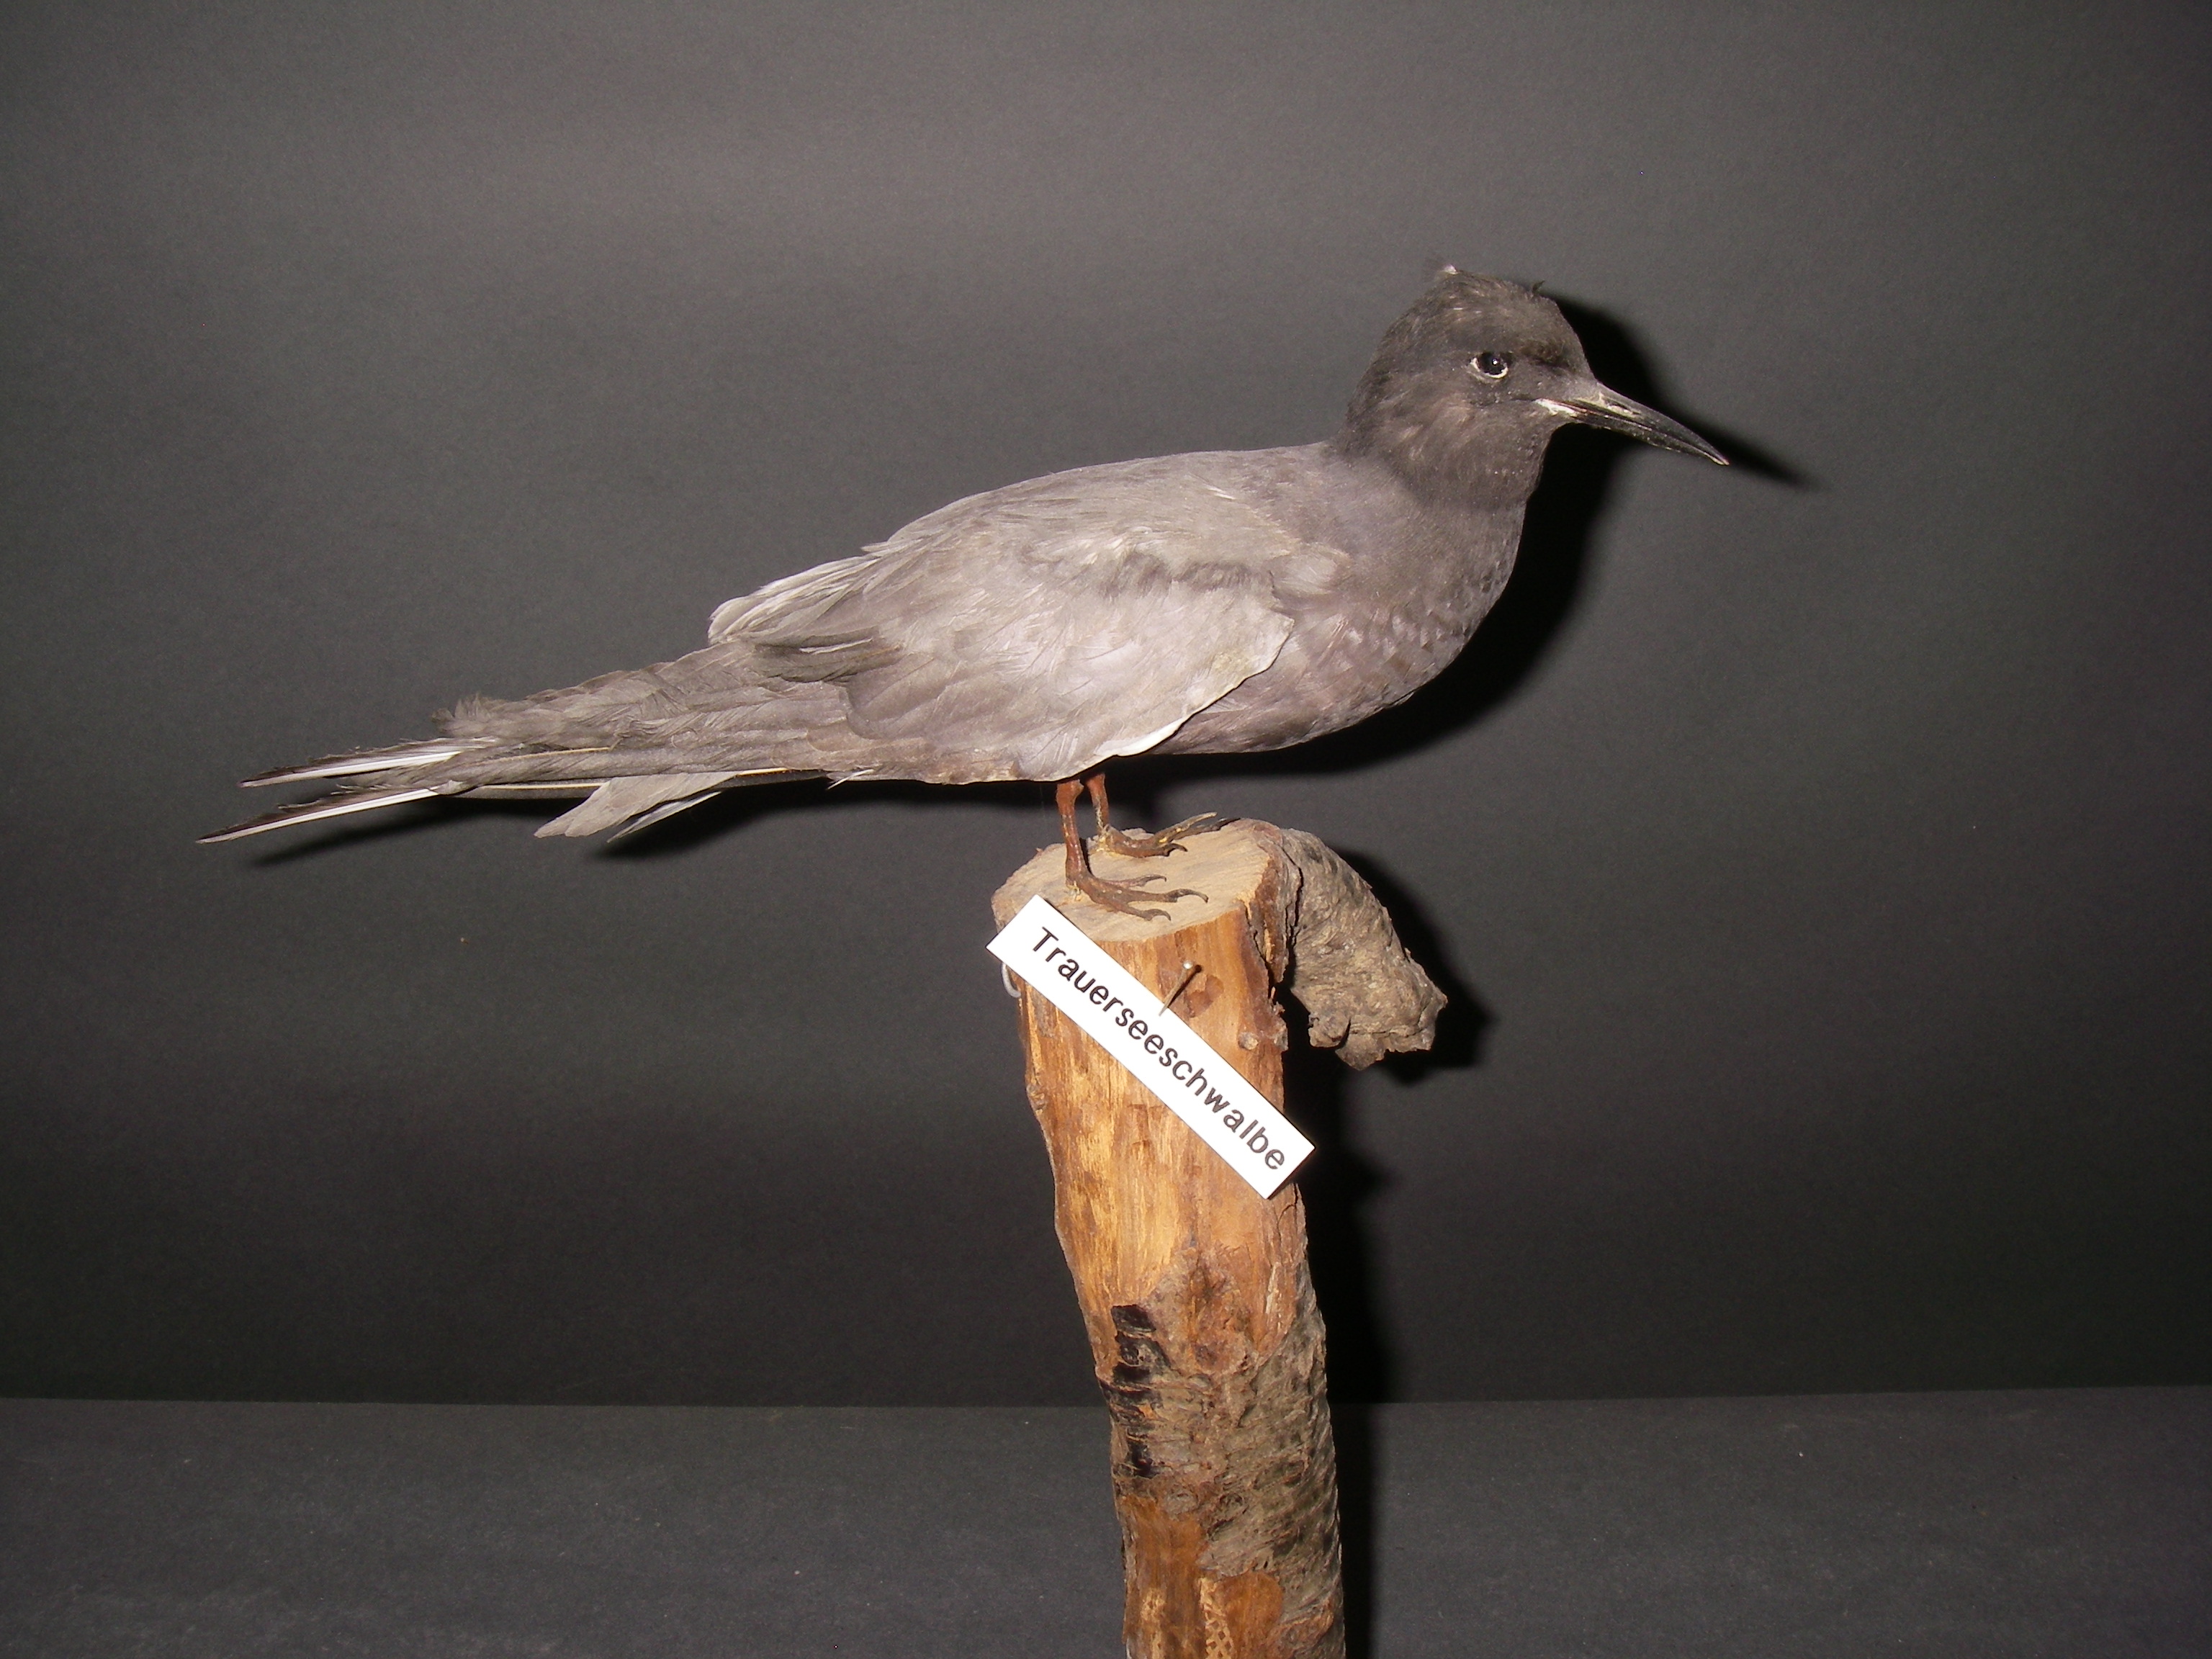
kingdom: Animalia
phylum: Chordata
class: Aves
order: Charadriiformes
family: Laridae
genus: Chlidonias
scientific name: Chlidonias niger
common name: Black tern
